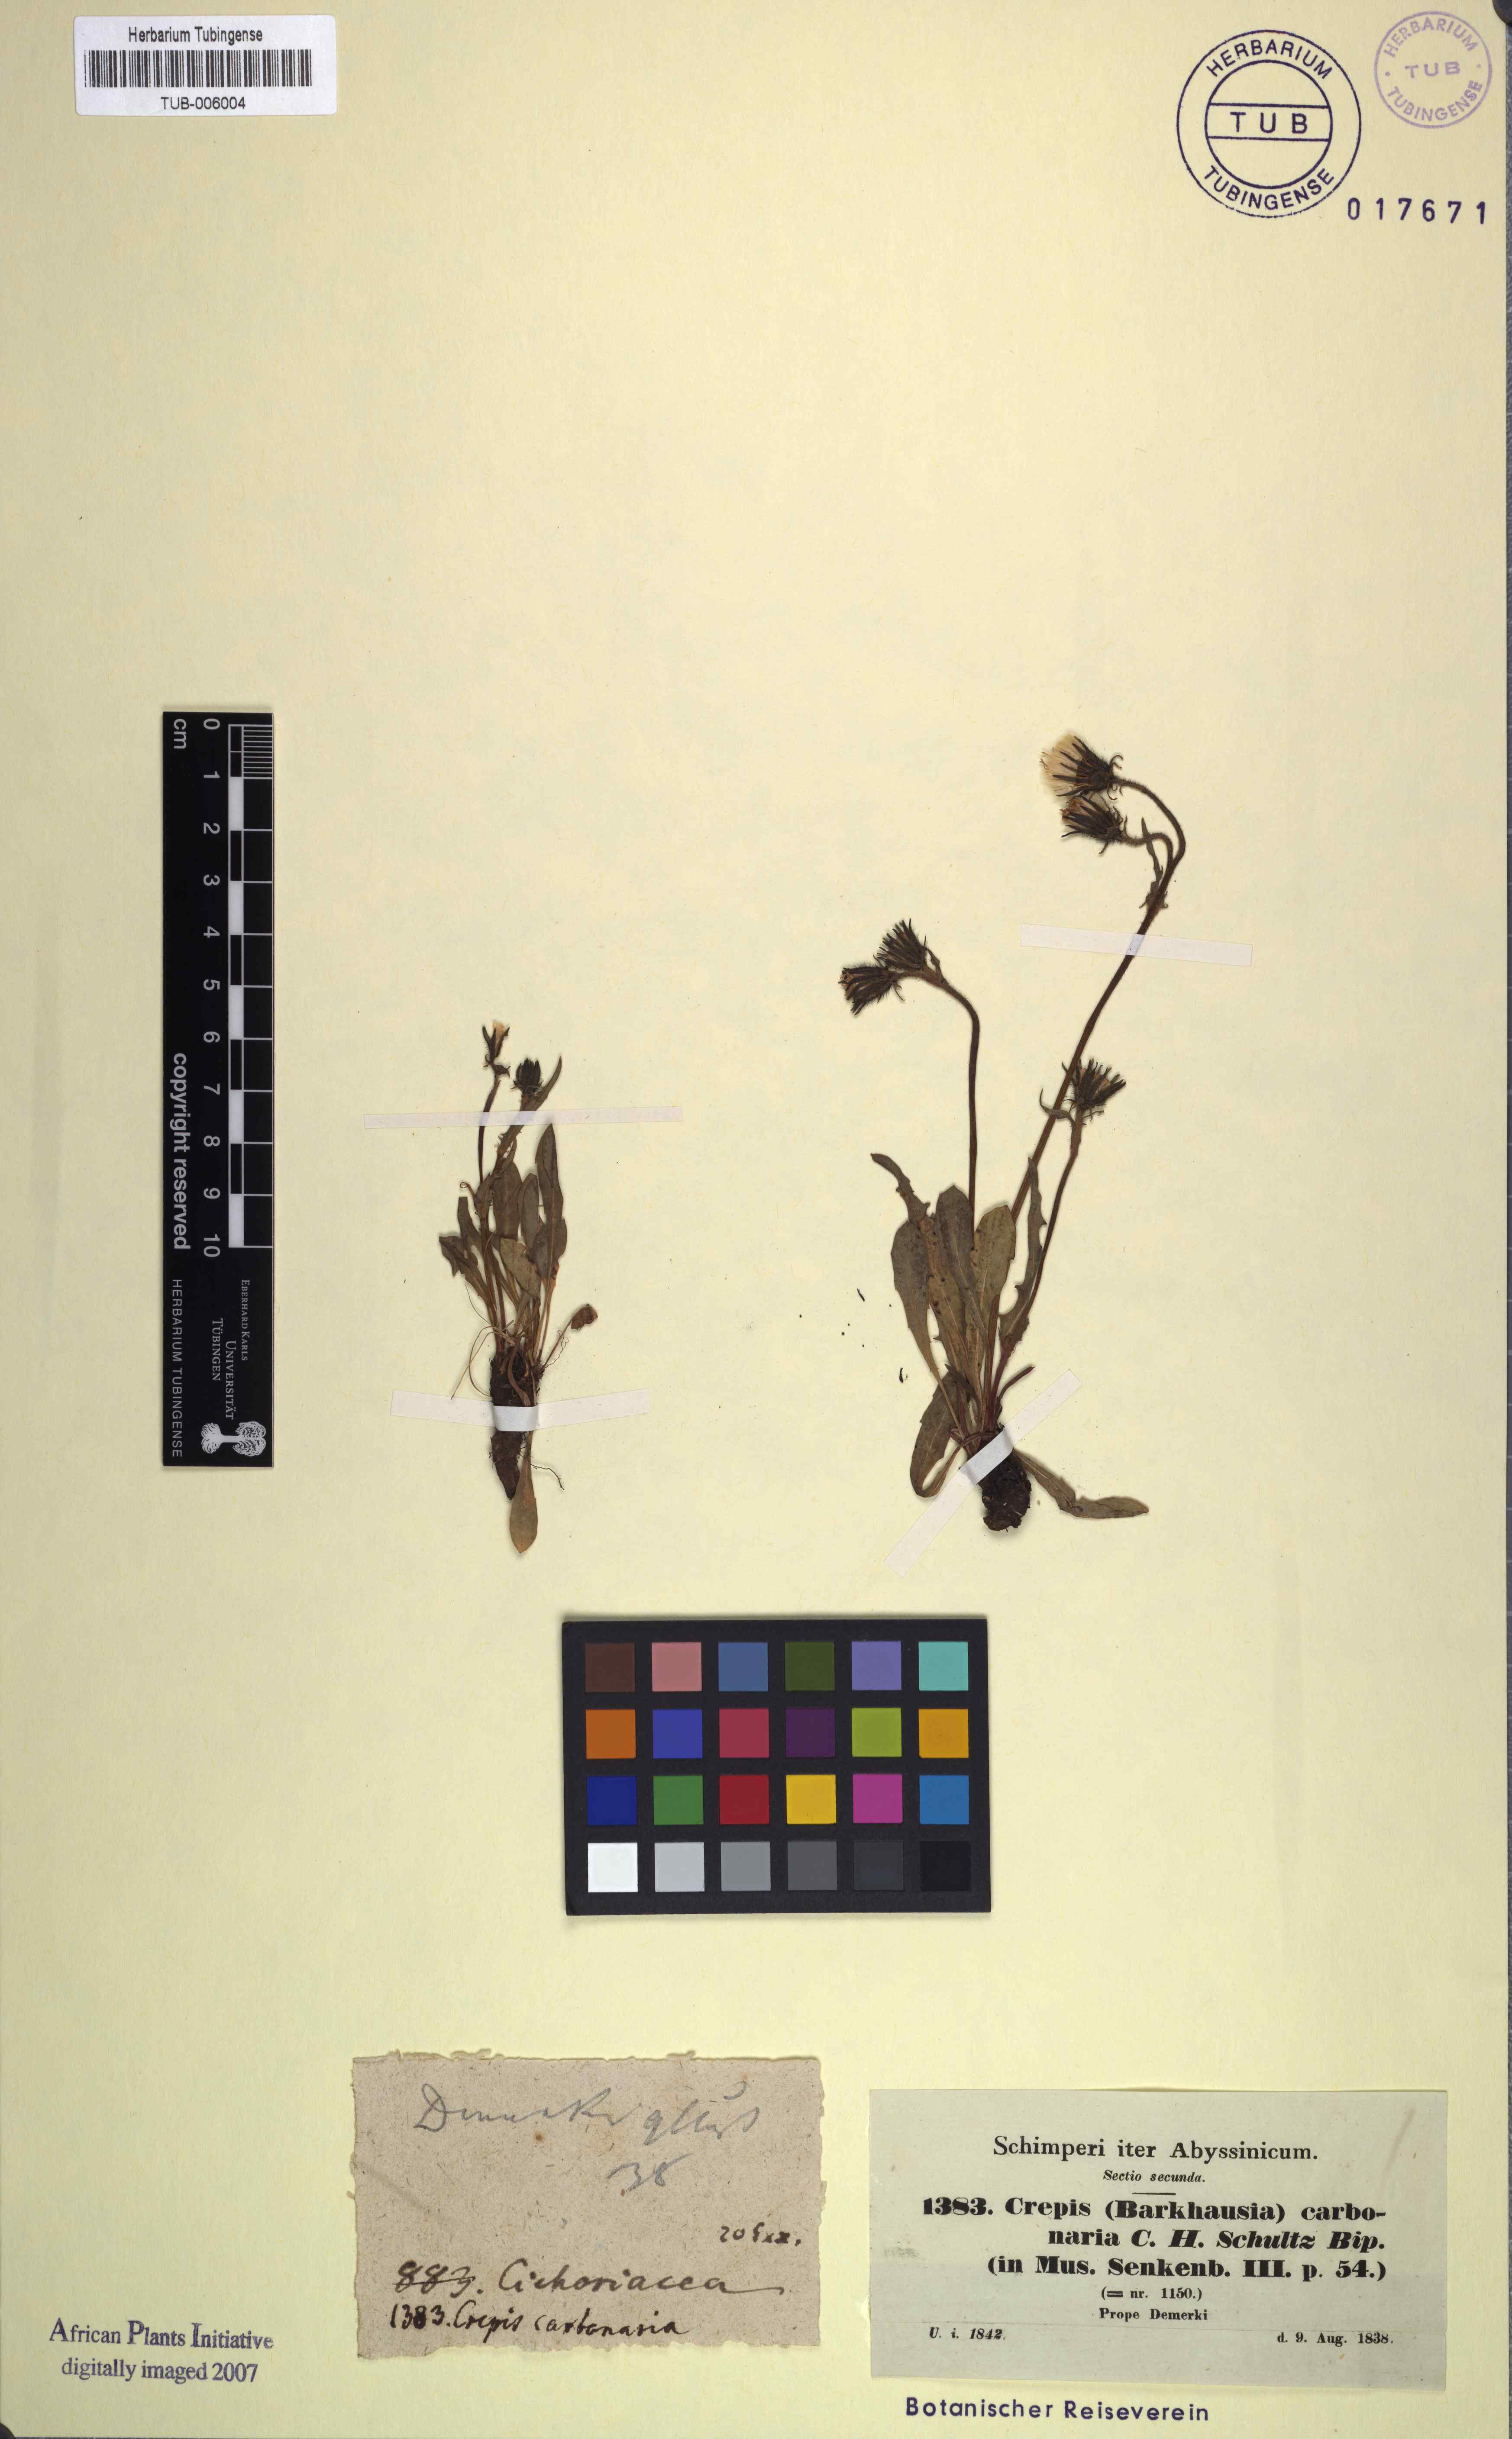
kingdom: Plantae
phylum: Tracheophyta
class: Magnoliopsida
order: Asterales
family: Asteraceae
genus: Crepis
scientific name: Crepis carbonaria
